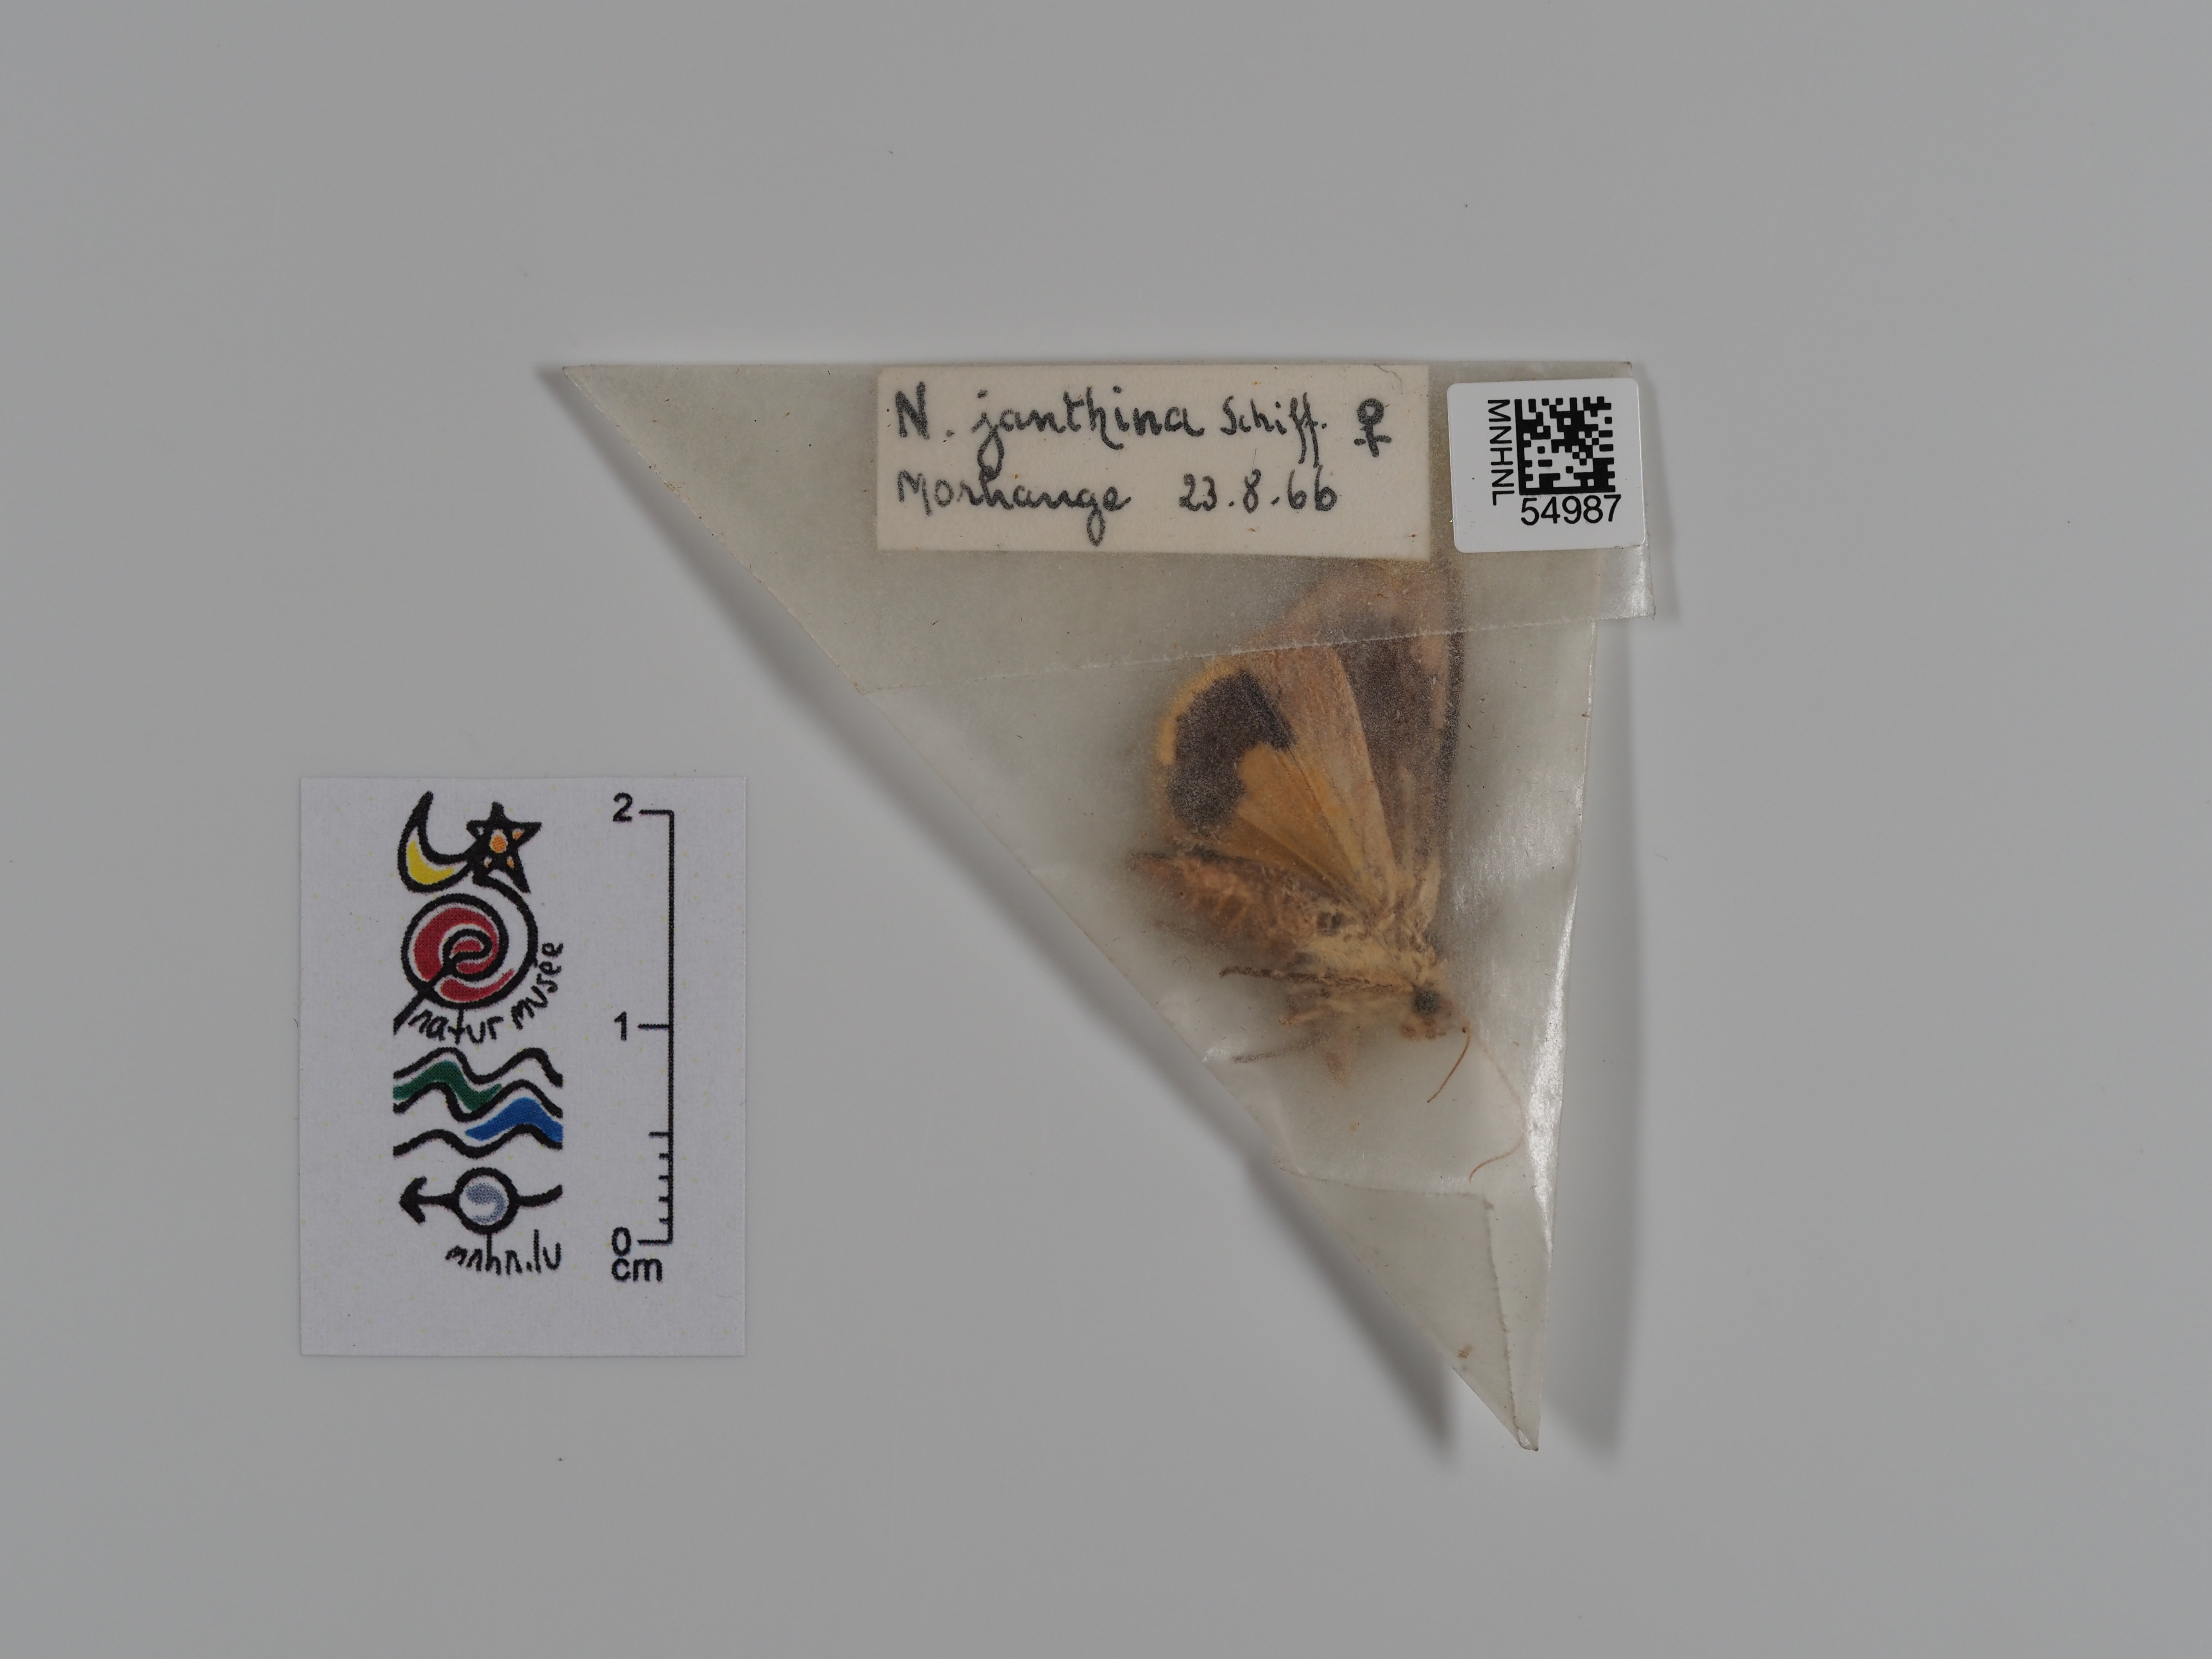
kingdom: Animalia
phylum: Arthropoda
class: Insecta
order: Lepidoptera
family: Noctuidae
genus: Noctua
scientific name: Noctua janthina
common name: Langmaid's yellow underwing
